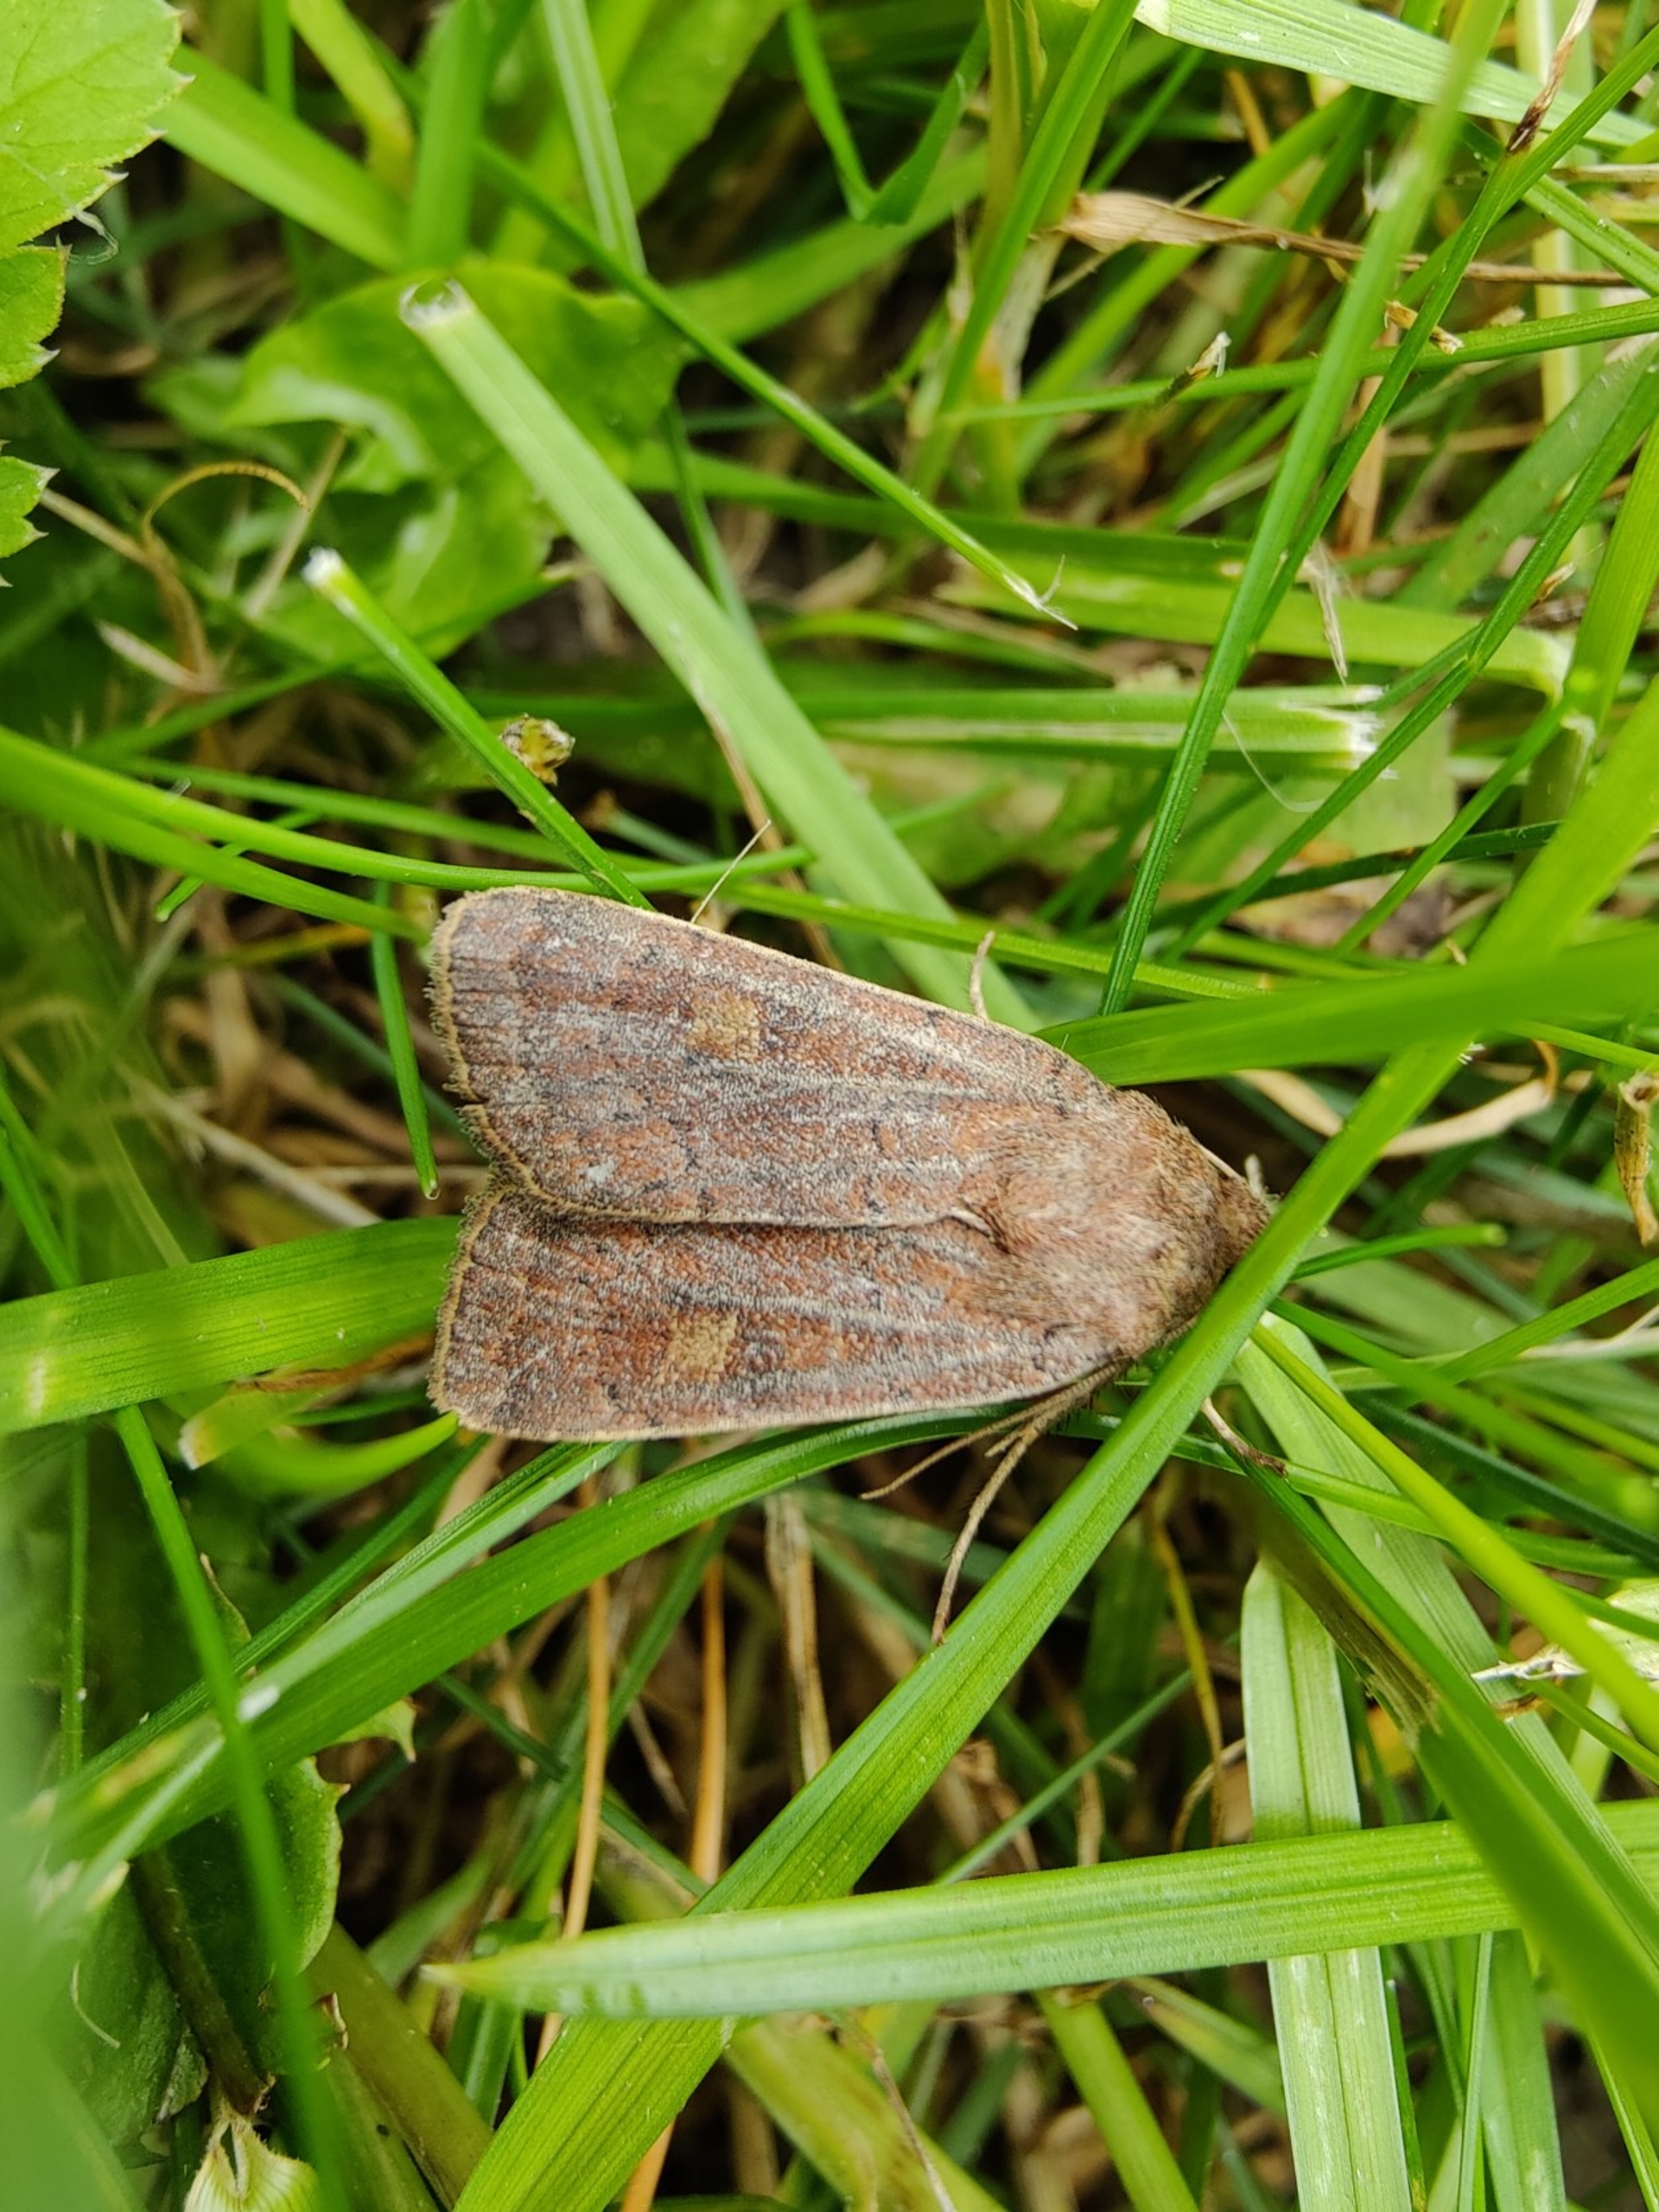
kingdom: Animalia
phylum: Arthropoda
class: Insecta
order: Lepidoptera
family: Noctuidae
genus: Xestia
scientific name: Xestia xanthographa
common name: Gulmærket glansugle
